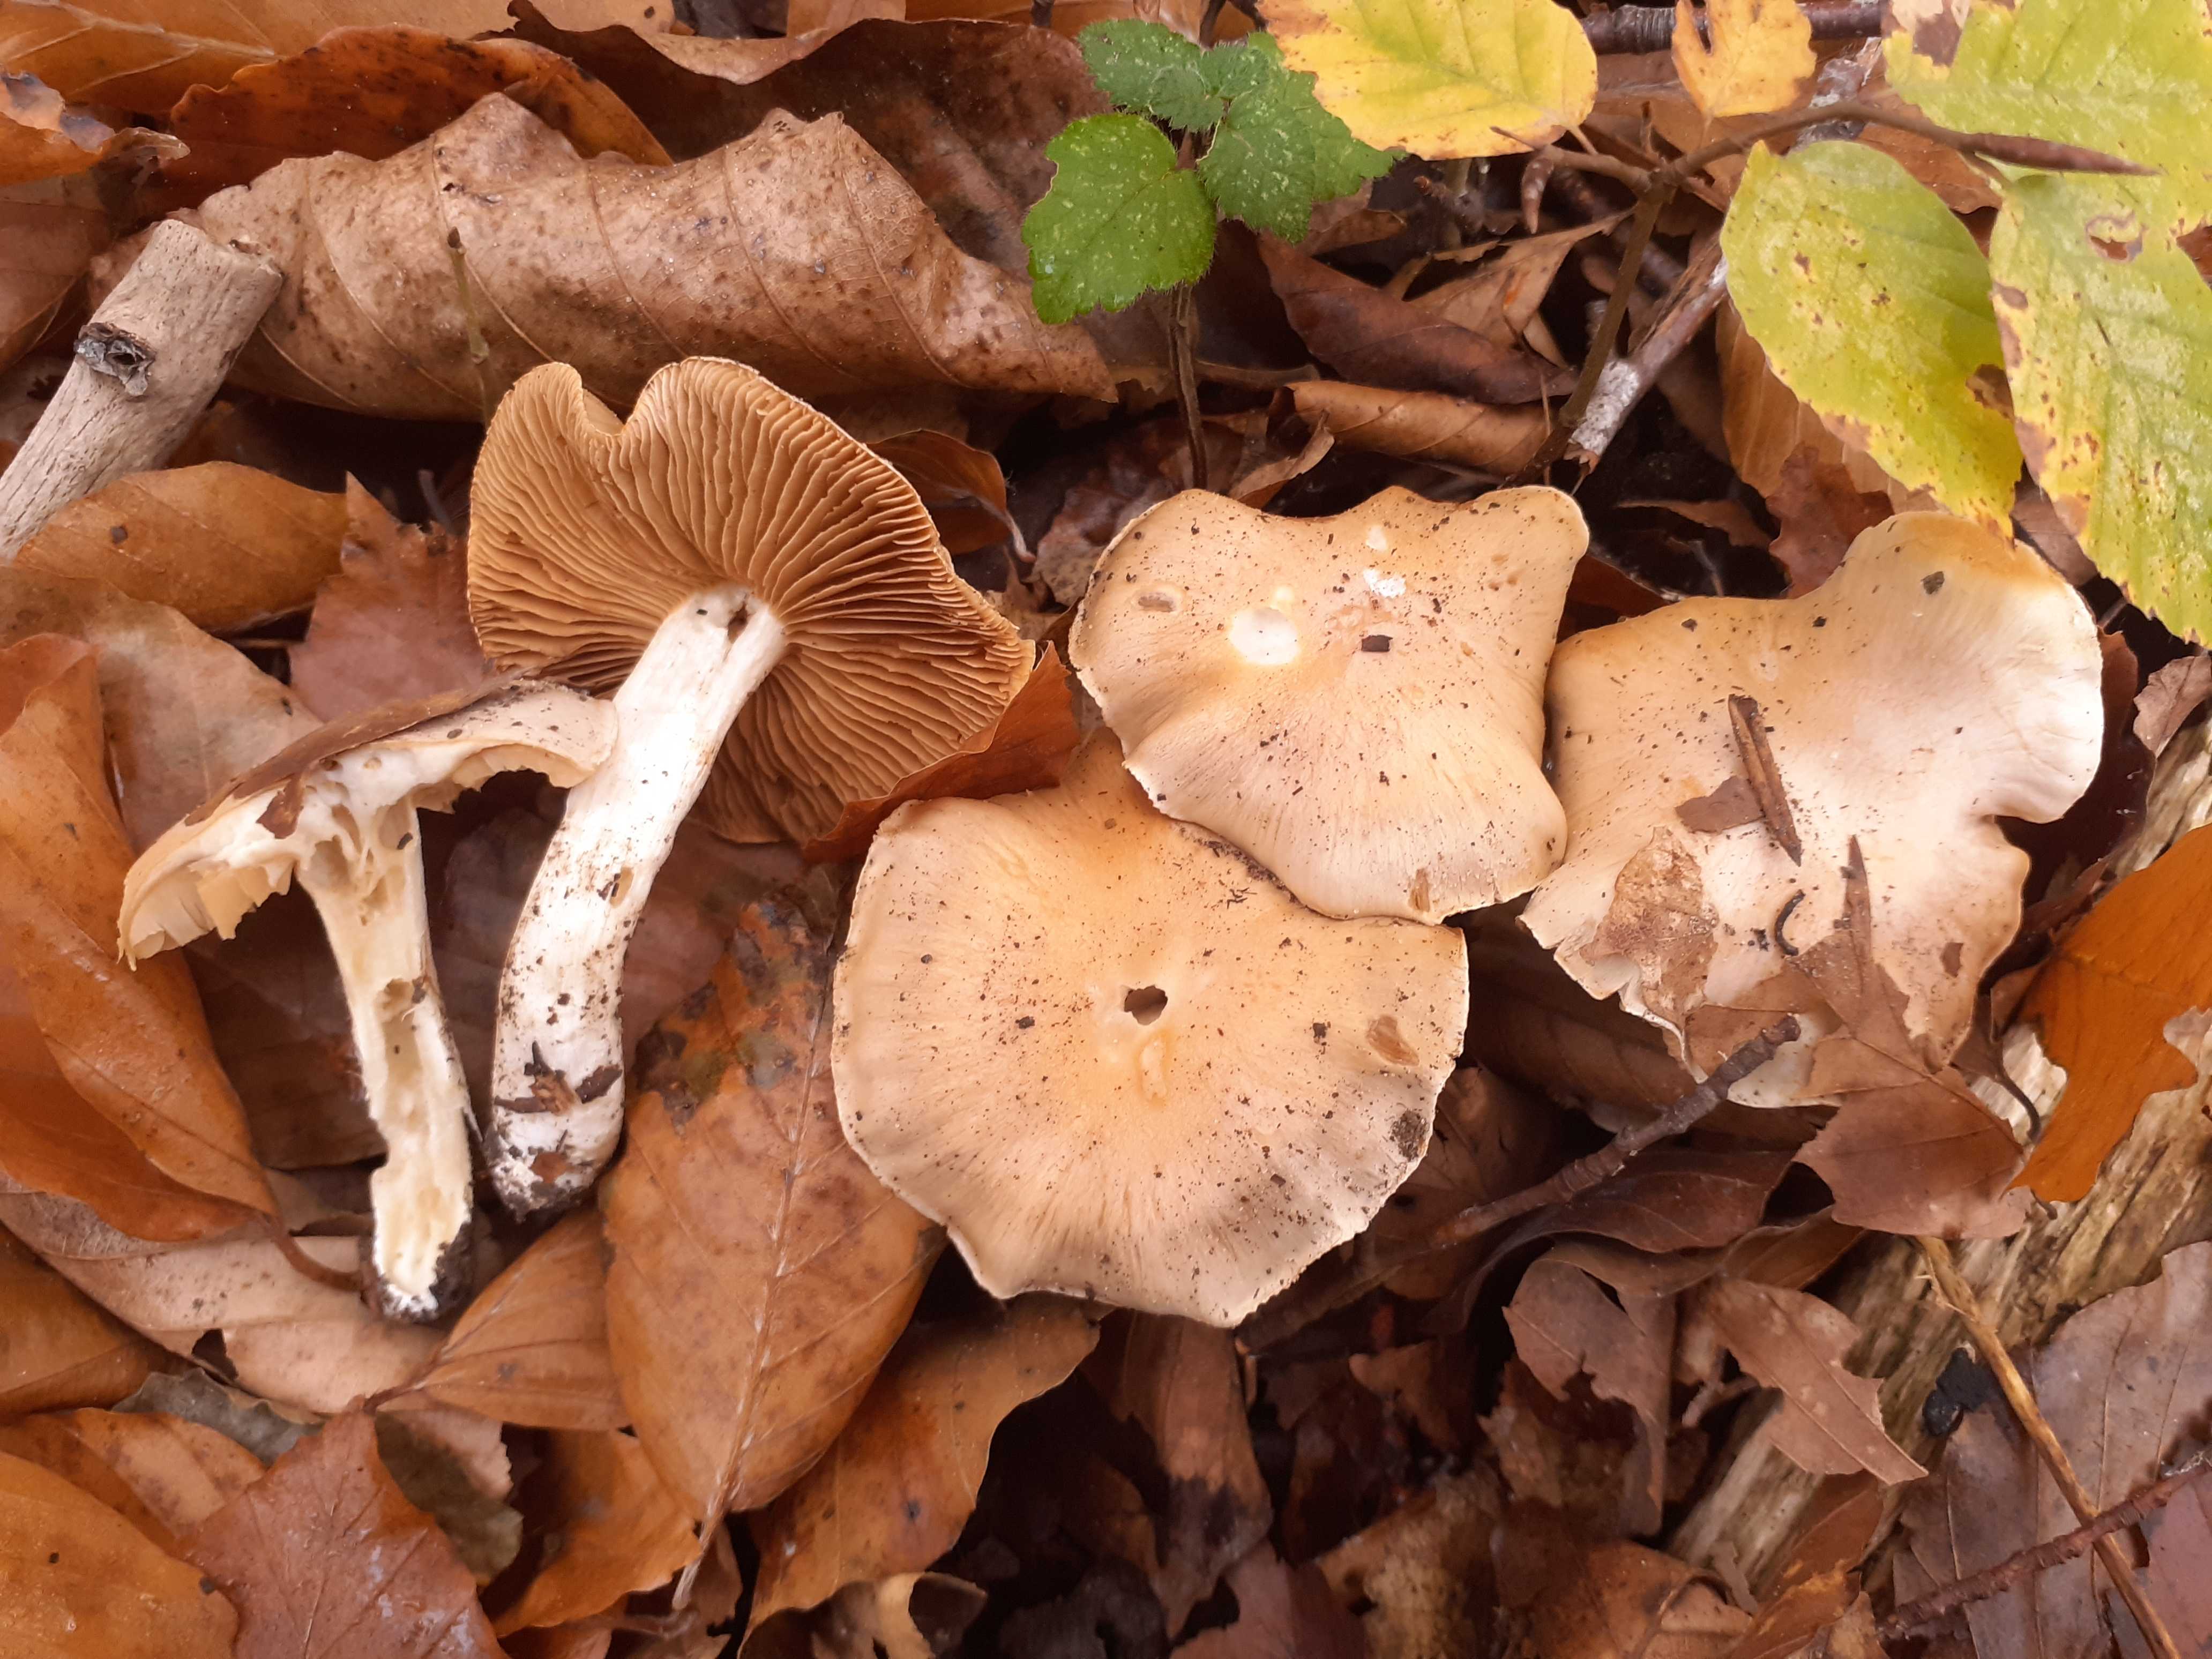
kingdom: Fungi
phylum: Basidiomycota
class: Agaricomycetes
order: Agaricales
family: Cortinariaceae
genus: Thaxterogaster
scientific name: Thaxterogaster leucoluteolus
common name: isabella slørhat
